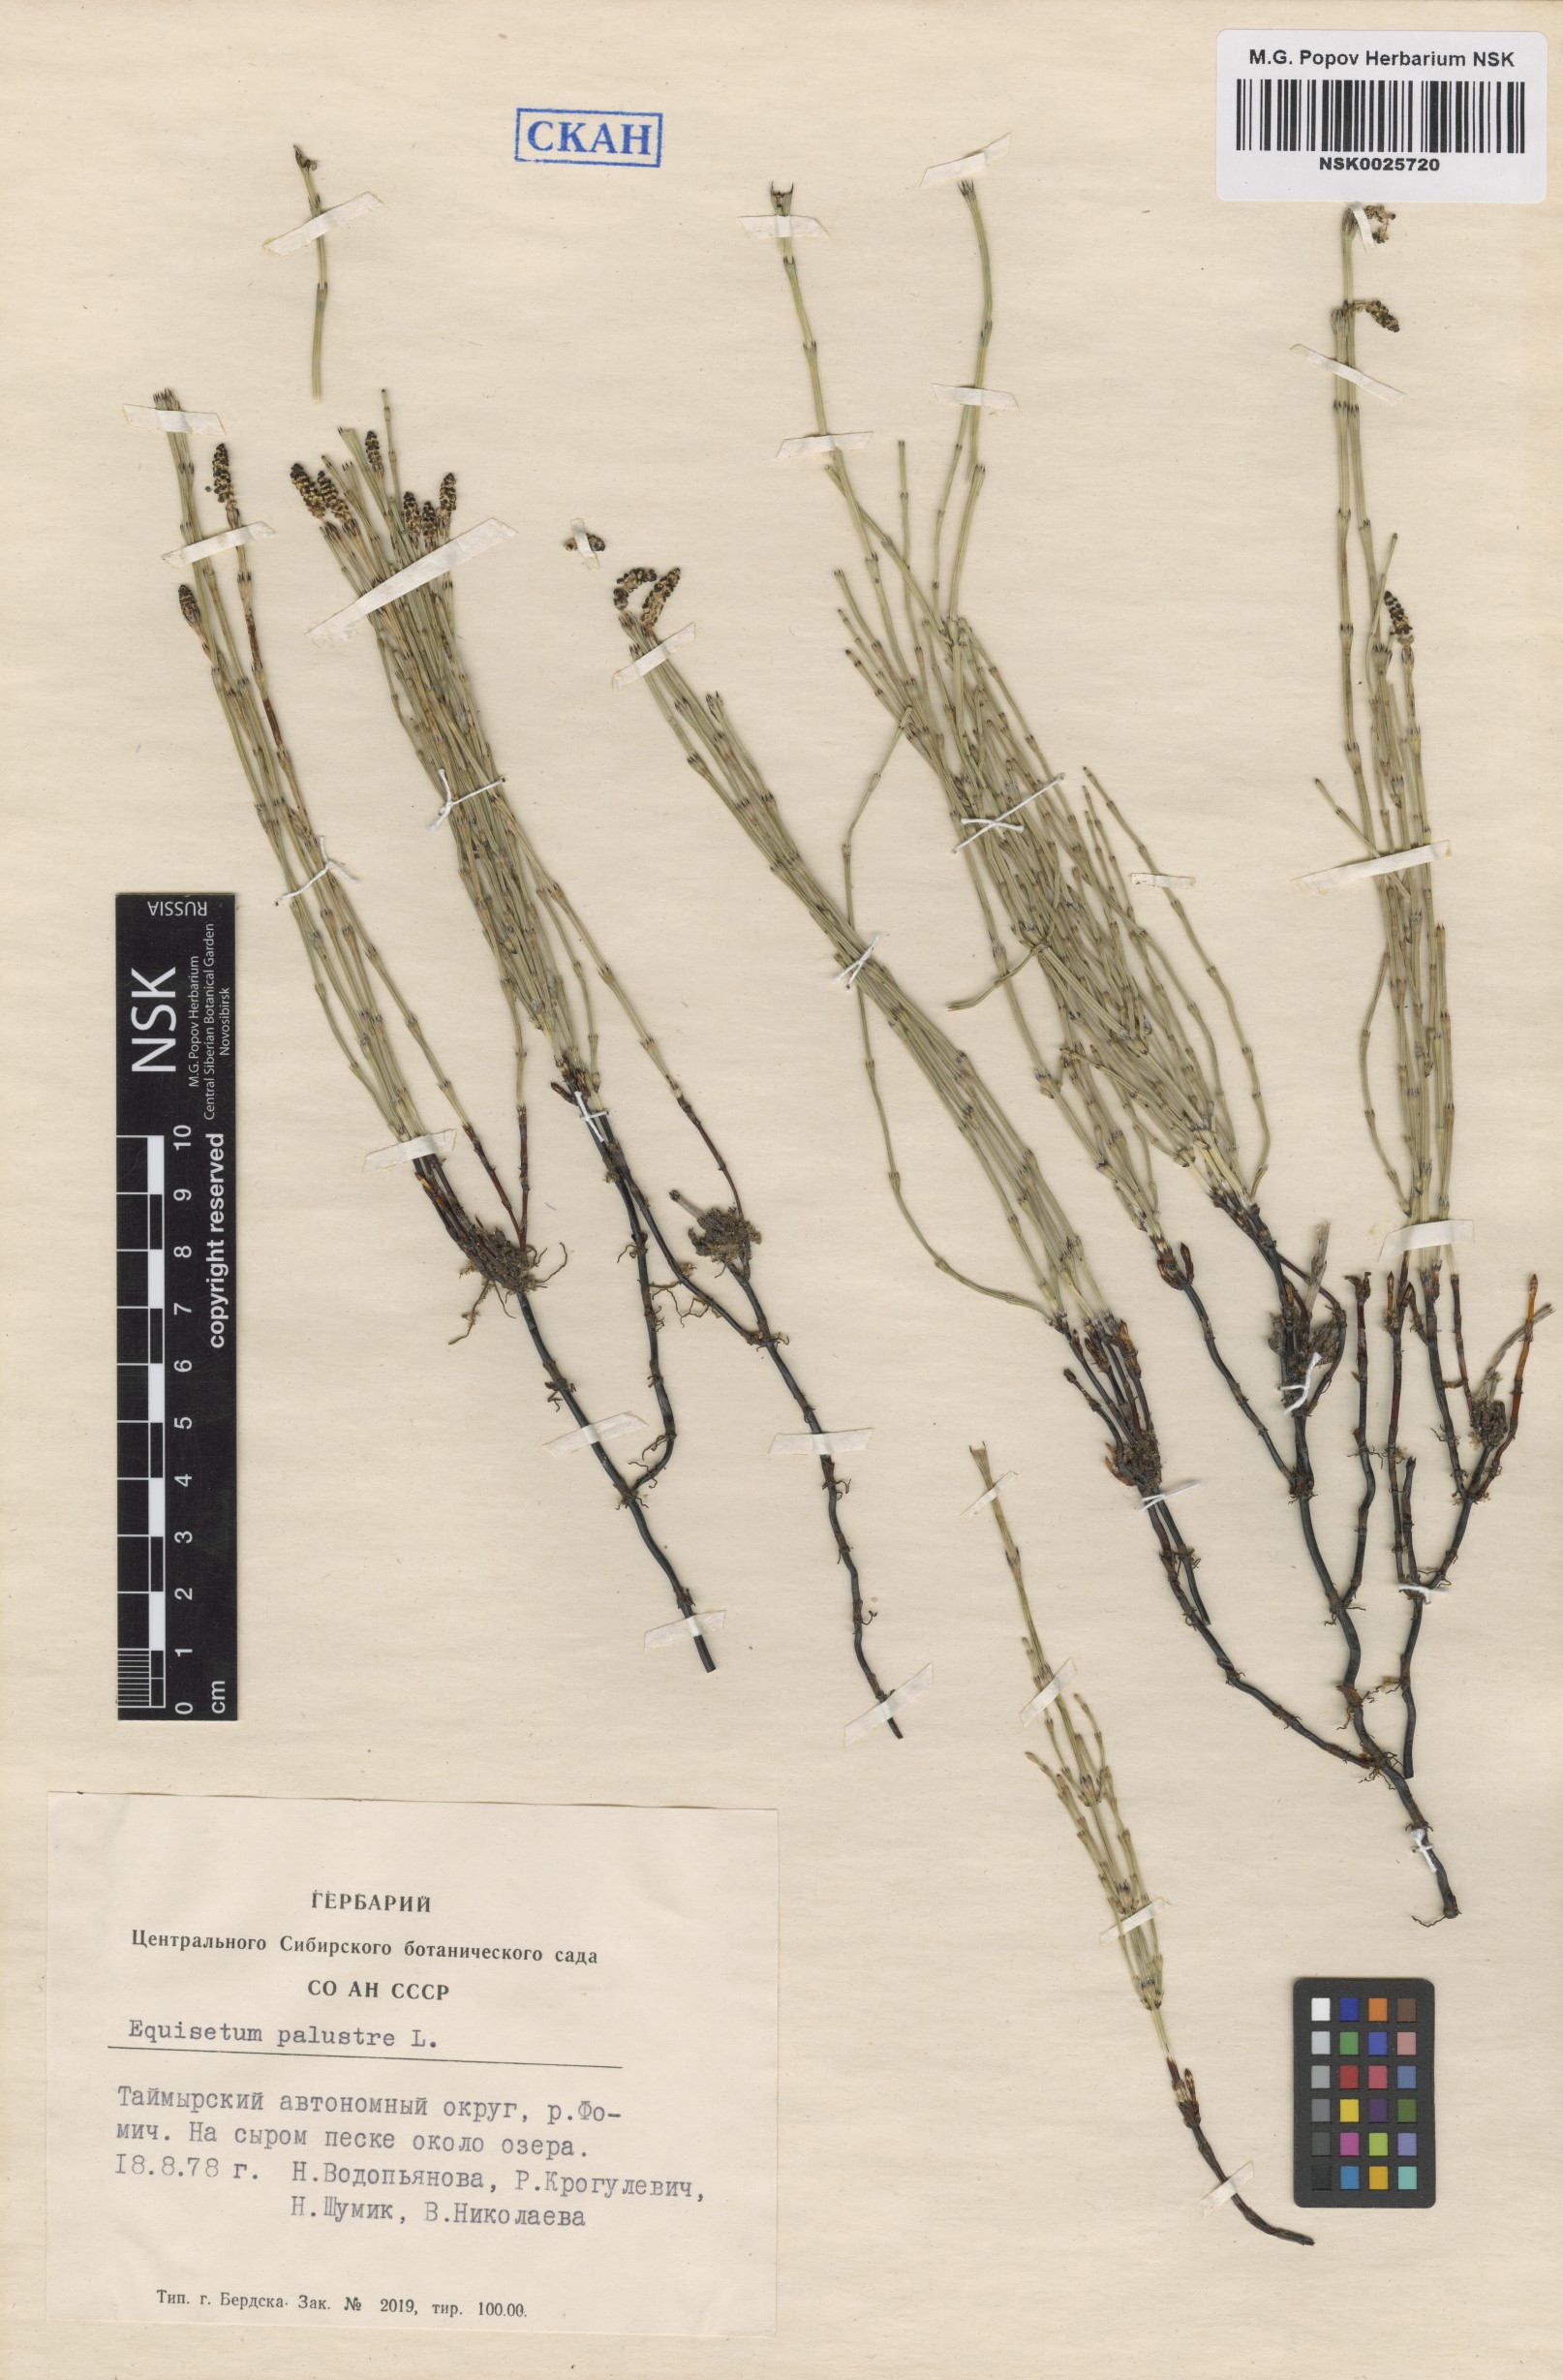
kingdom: Plantae
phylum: Tracheophyta
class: Polypodiopsida
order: Equisetales
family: Equisetaceae
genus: Equisetum
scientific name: Equisetum palustre
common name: Marsh horsetail
